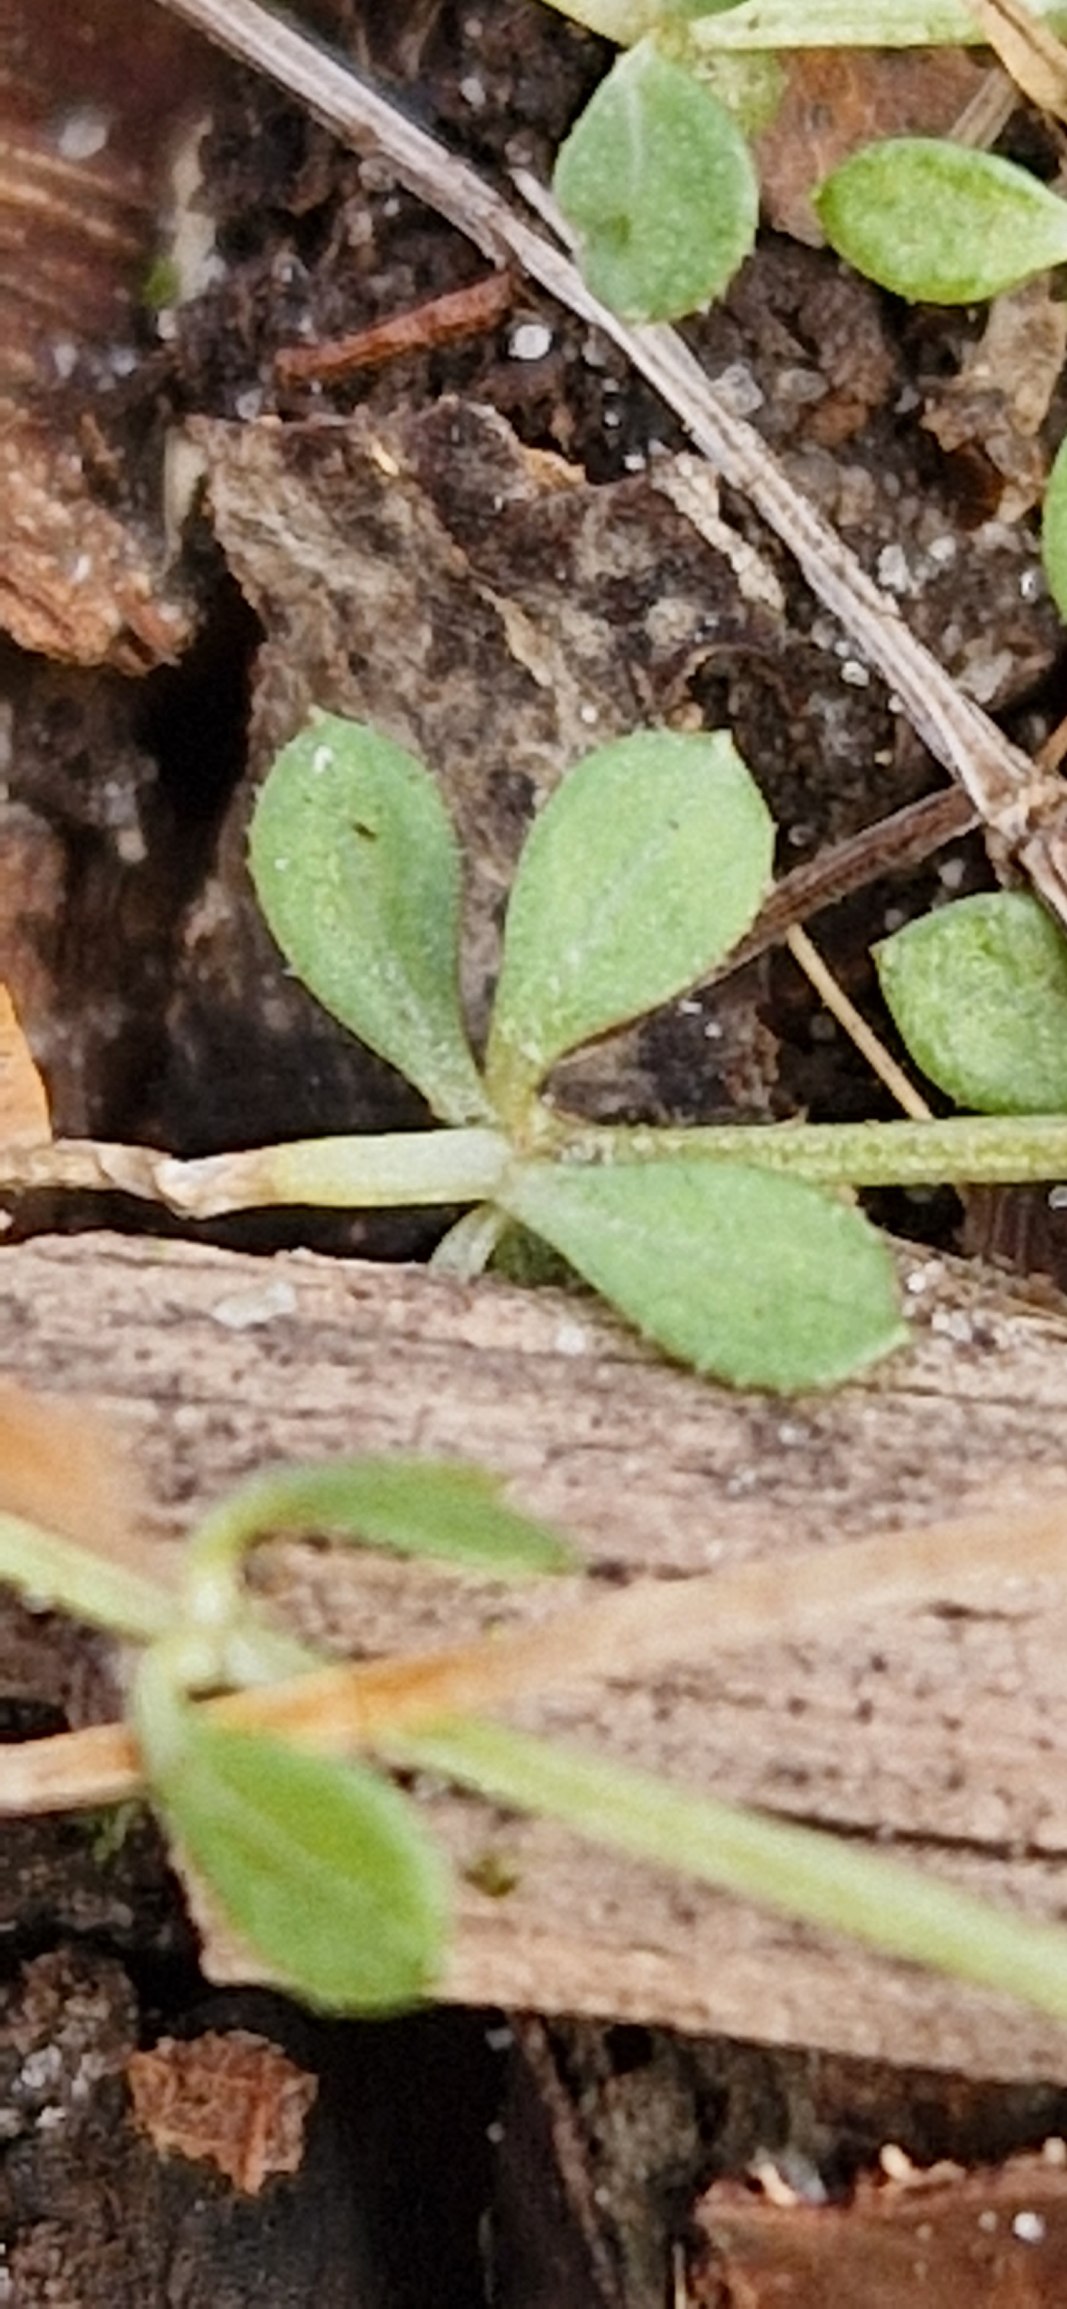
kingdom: Plantae
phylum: Tracheophyta
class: Magnoliopsida
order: Gentianales
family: Rubiaceae
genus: Galium
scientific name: Galium saxatile
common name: Lyng-snerre
